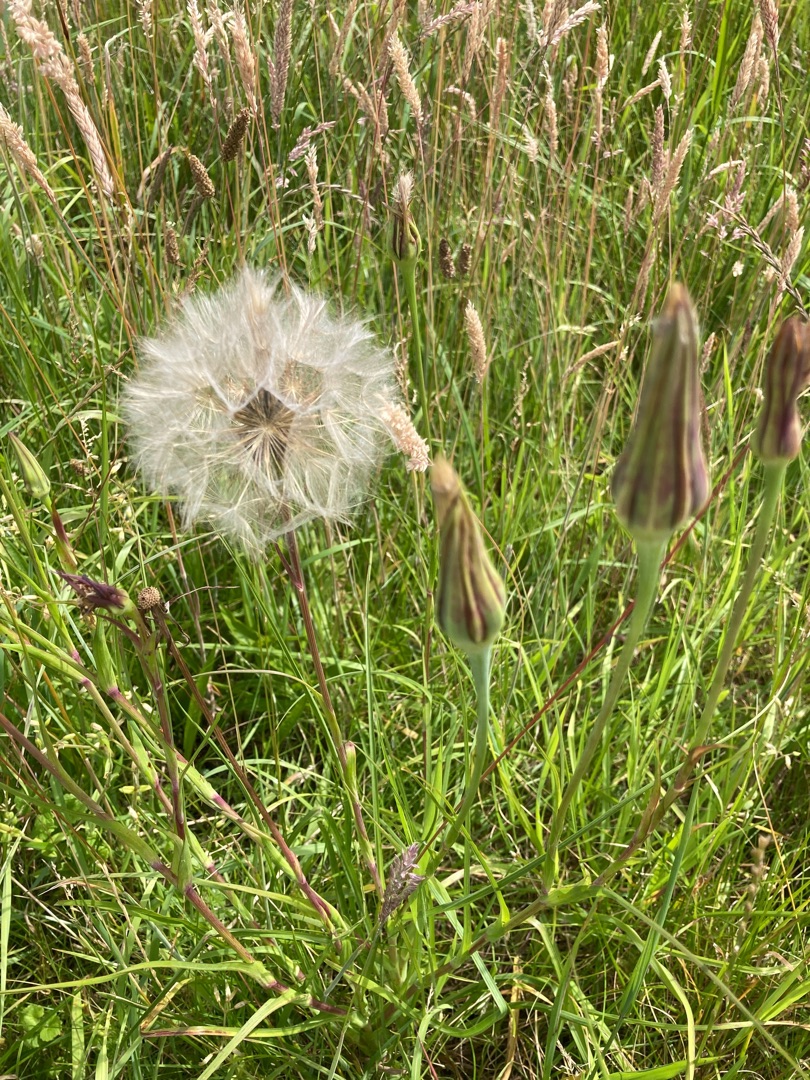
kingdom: Plantae
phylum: Tracheophyta
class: Magnoliopsida
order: Asterales
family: Asteraceae
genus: Tragopogon
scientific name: Tragopogon pratensis
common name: Gedeskæg
